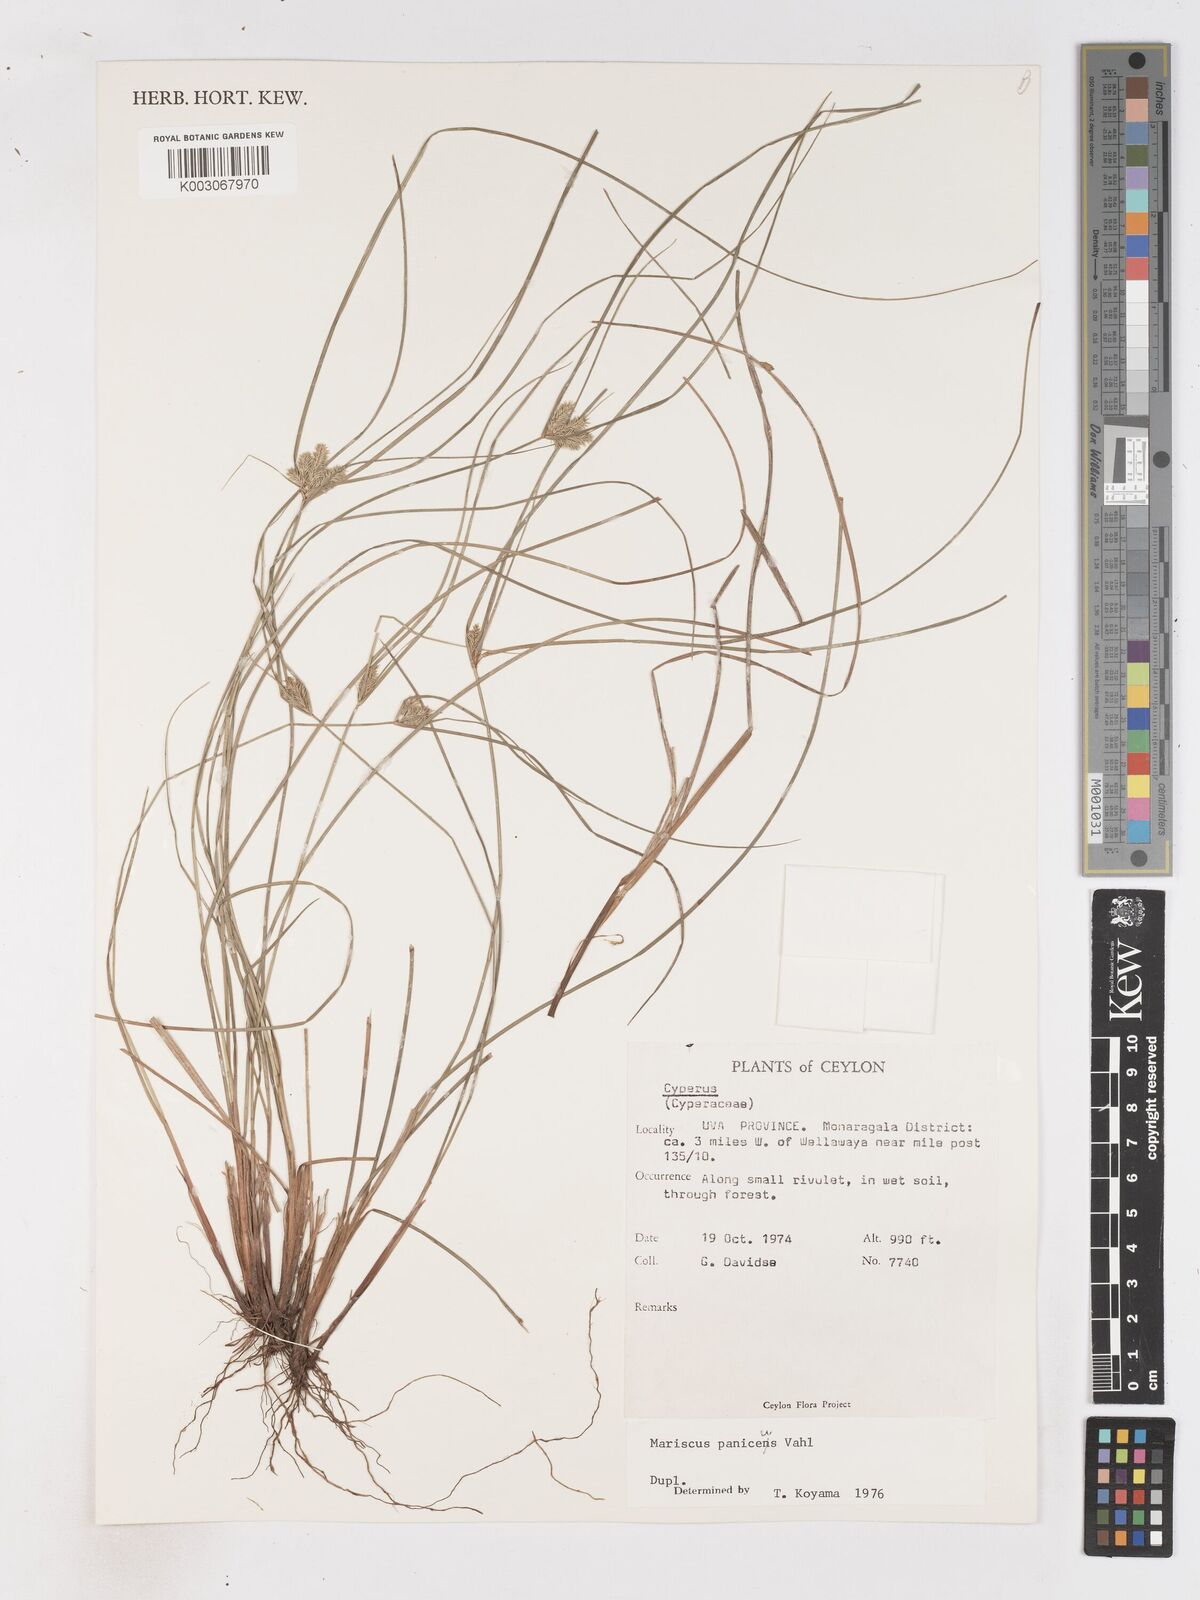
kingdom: Plantae
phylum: Tracheophyta
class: Liliopsida
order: Poales
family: Cyperaceae
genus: Cyperus
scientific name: Cyperus paniceus
